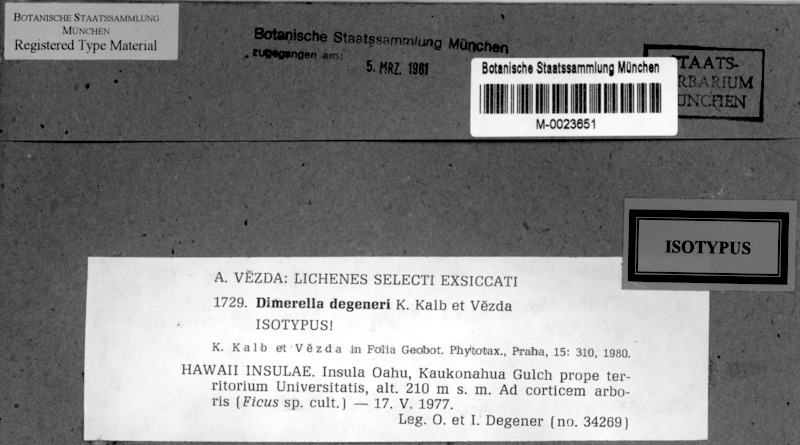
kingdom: Fungi
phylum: Ascomycota
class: Lecanoromycetes
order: Ostropales
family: Coenogoniaceae
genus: Coenogonium
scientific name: Coenogonium degeneri
